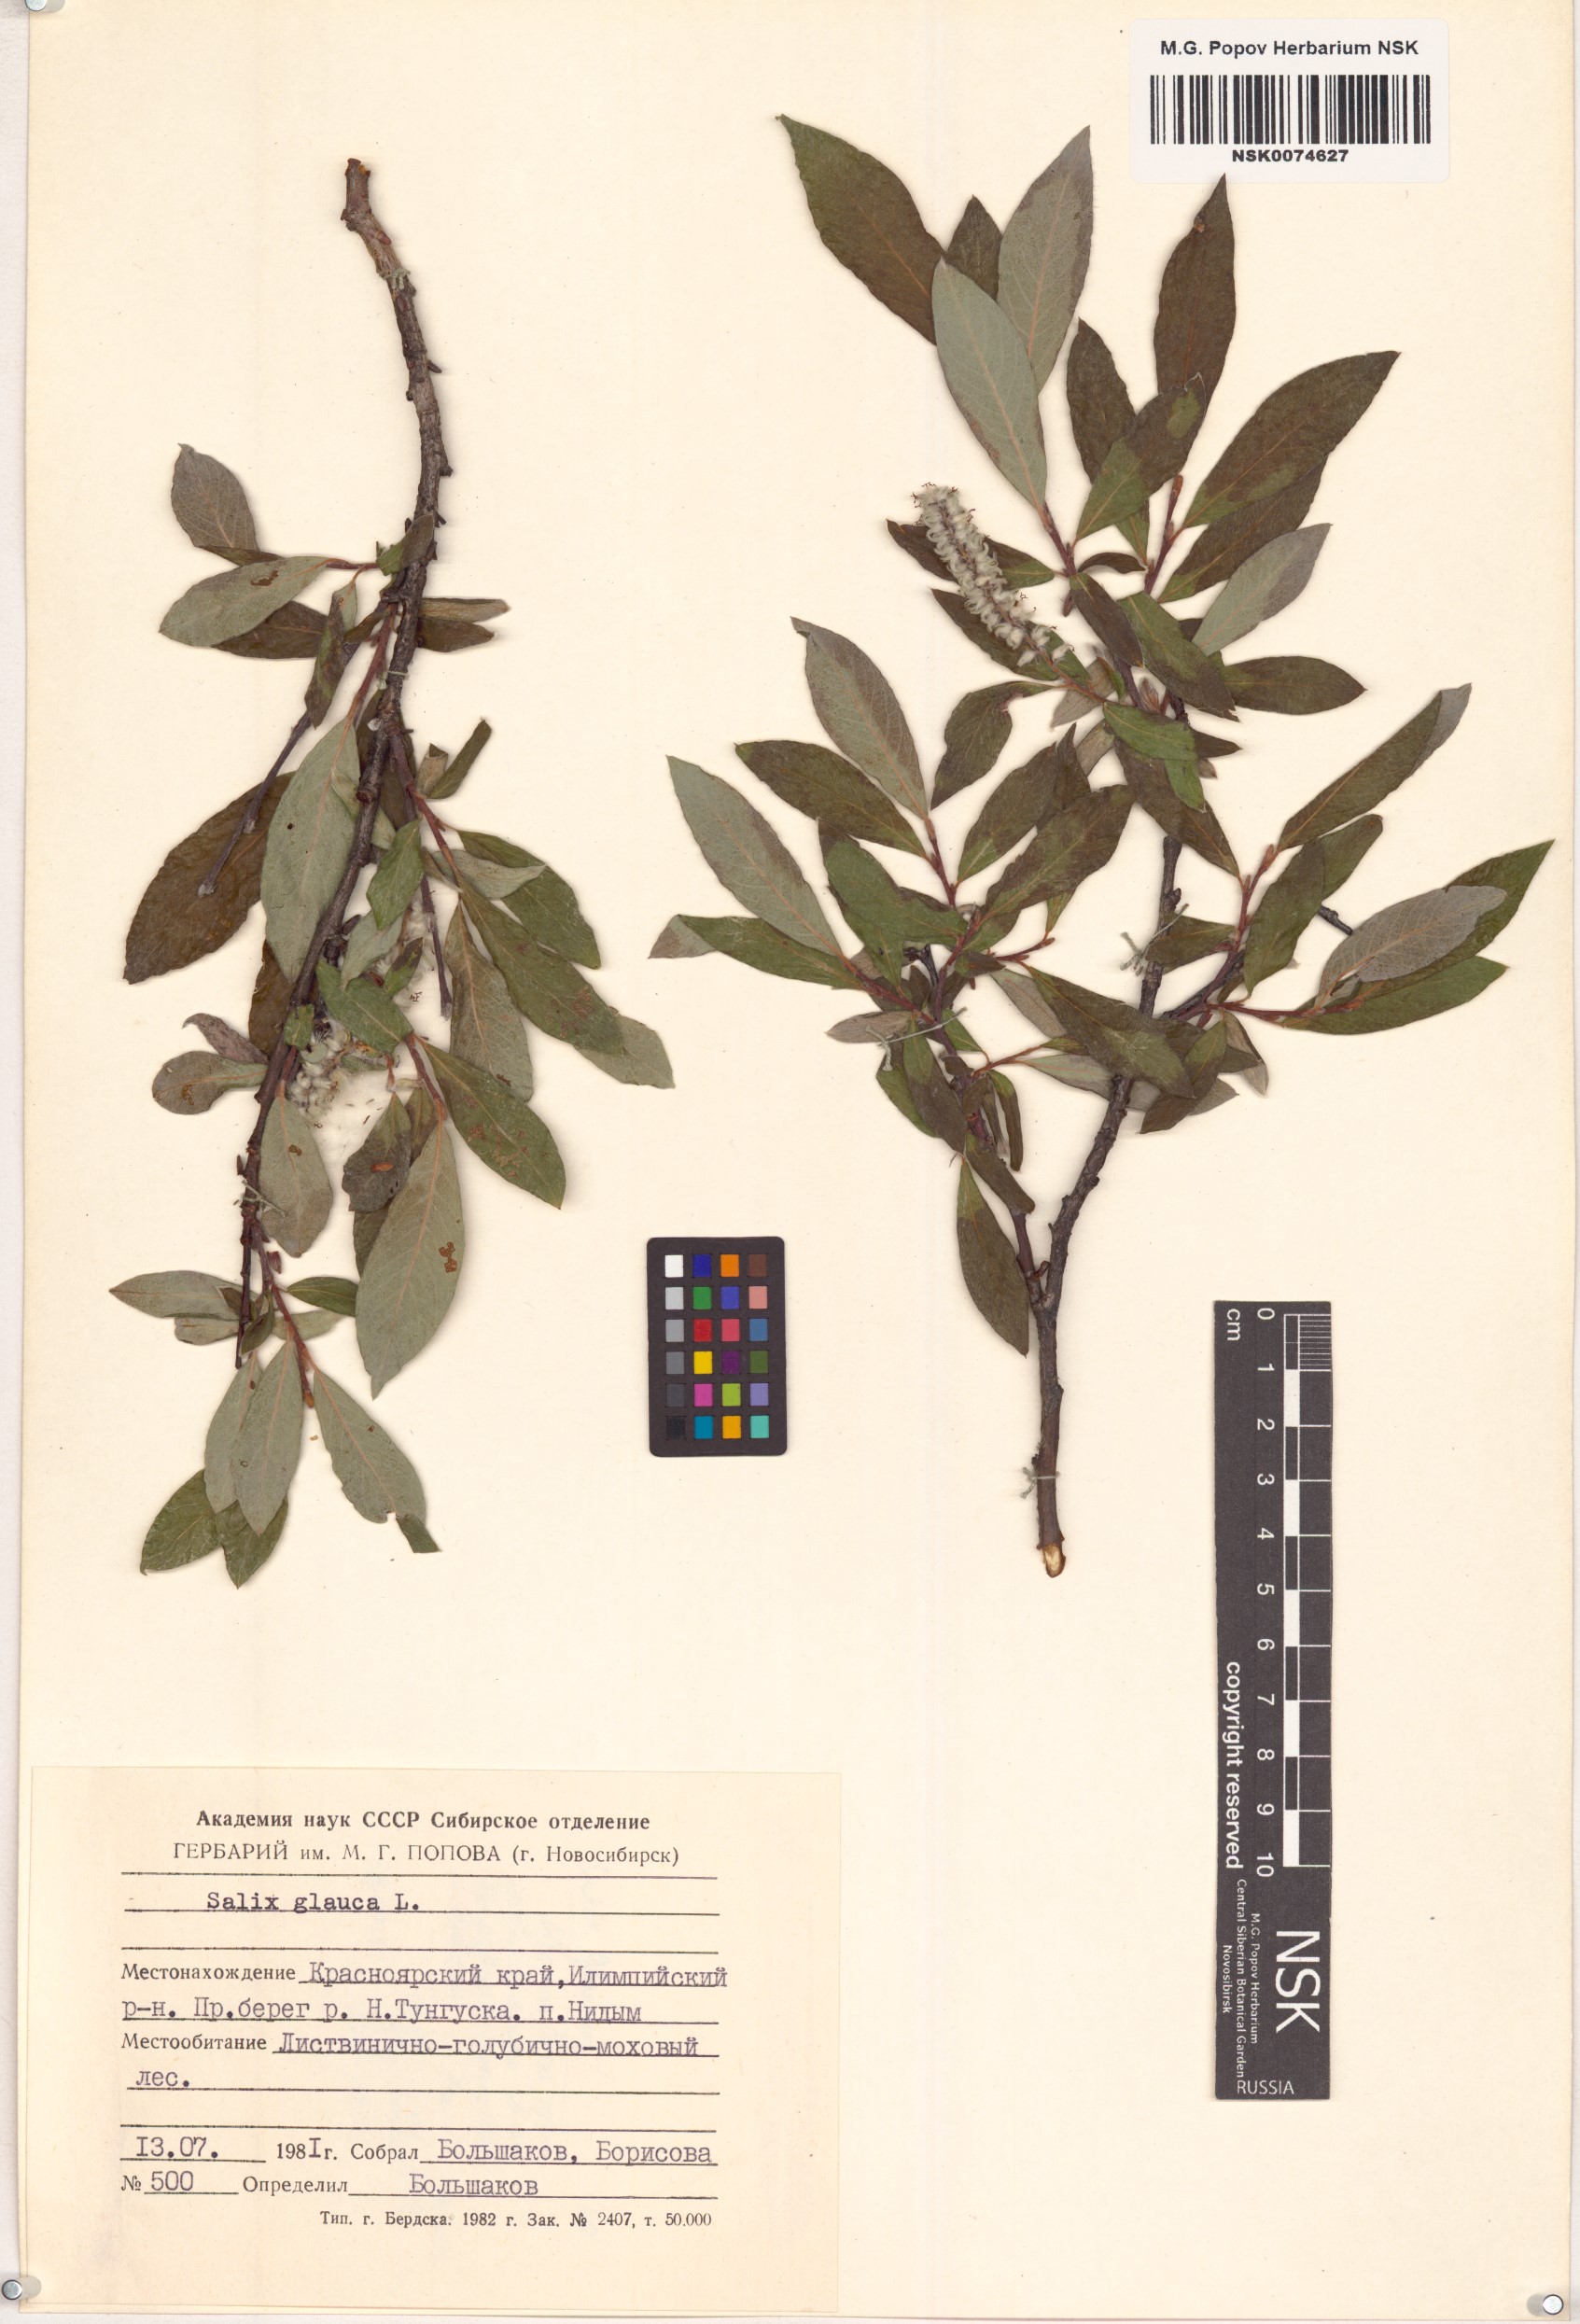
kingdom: Plantae
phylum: Tracheophyta
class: Magnoliopsida
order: Malpighiales
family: Salicaceae
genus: Salix
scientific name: Salix glauca
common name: Glaucous willow
